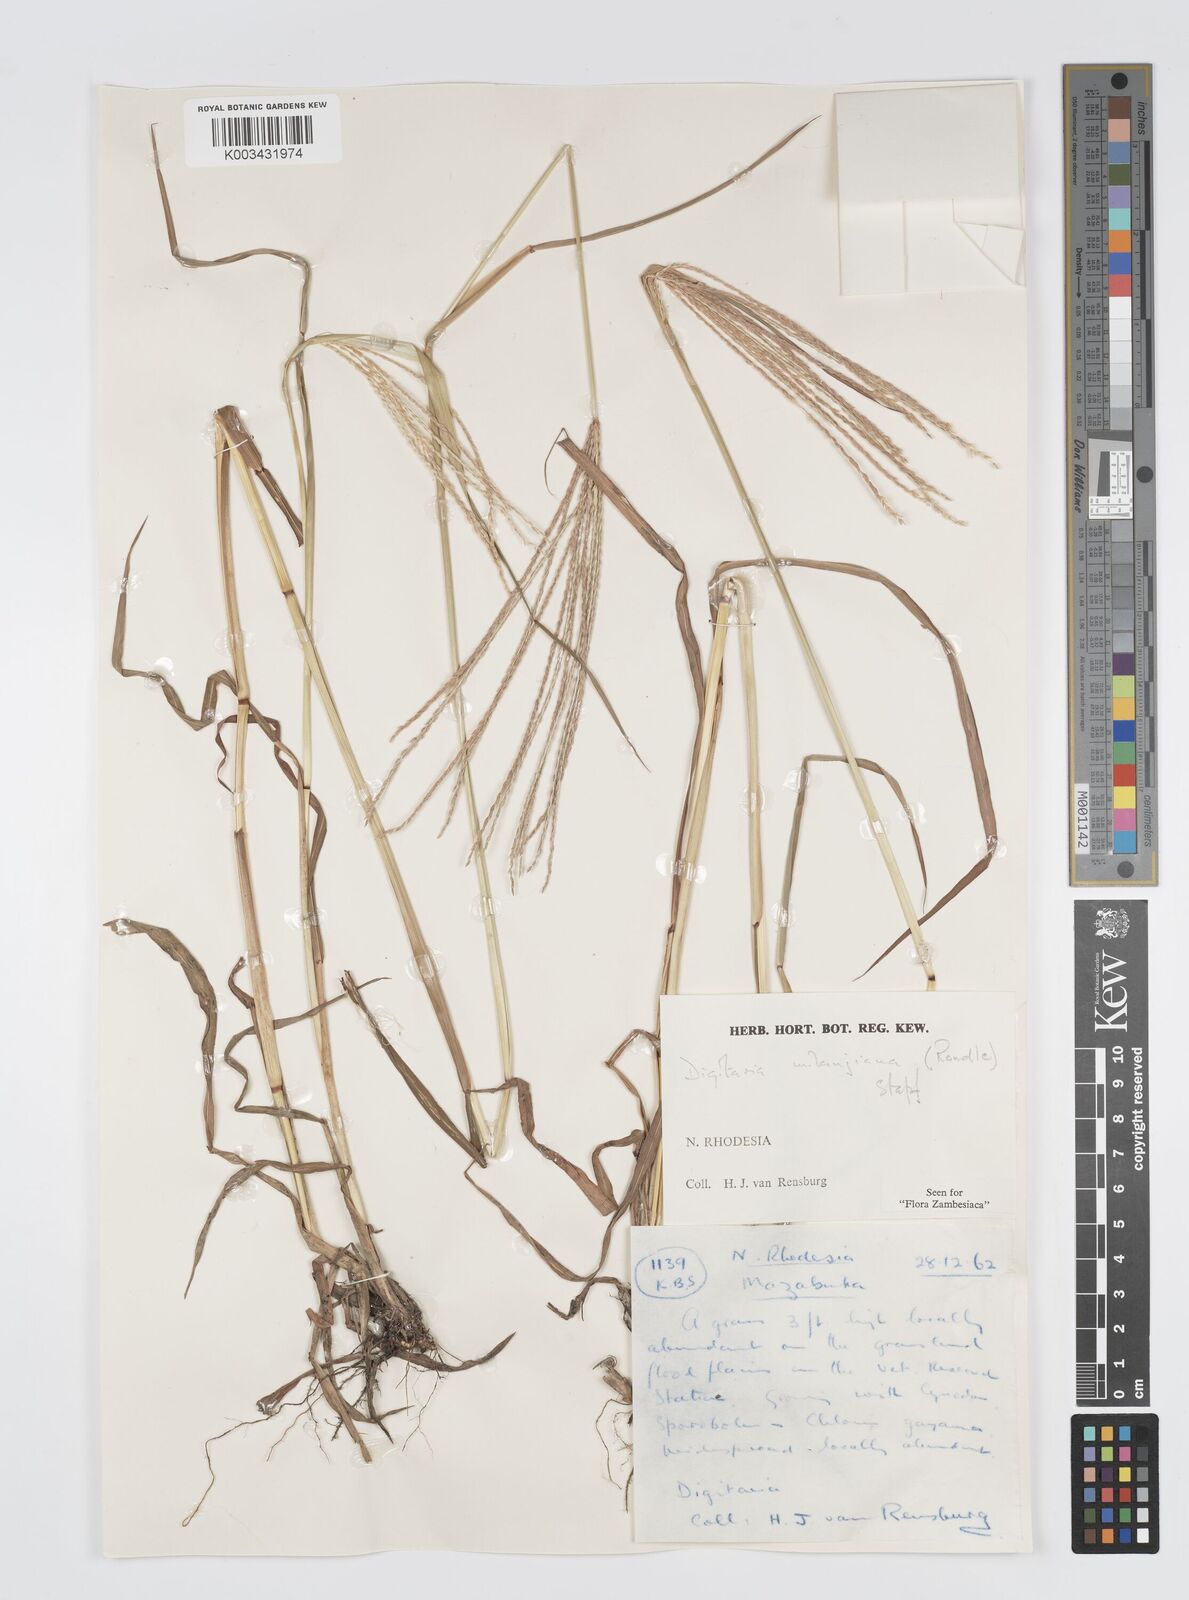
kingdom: Plantae
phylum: Tracheophyta
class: Liliopsida
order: Poales
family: Poaceae
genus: Digitaria
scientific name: Digitaria milanjiana
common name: Madagascar crabgrass
